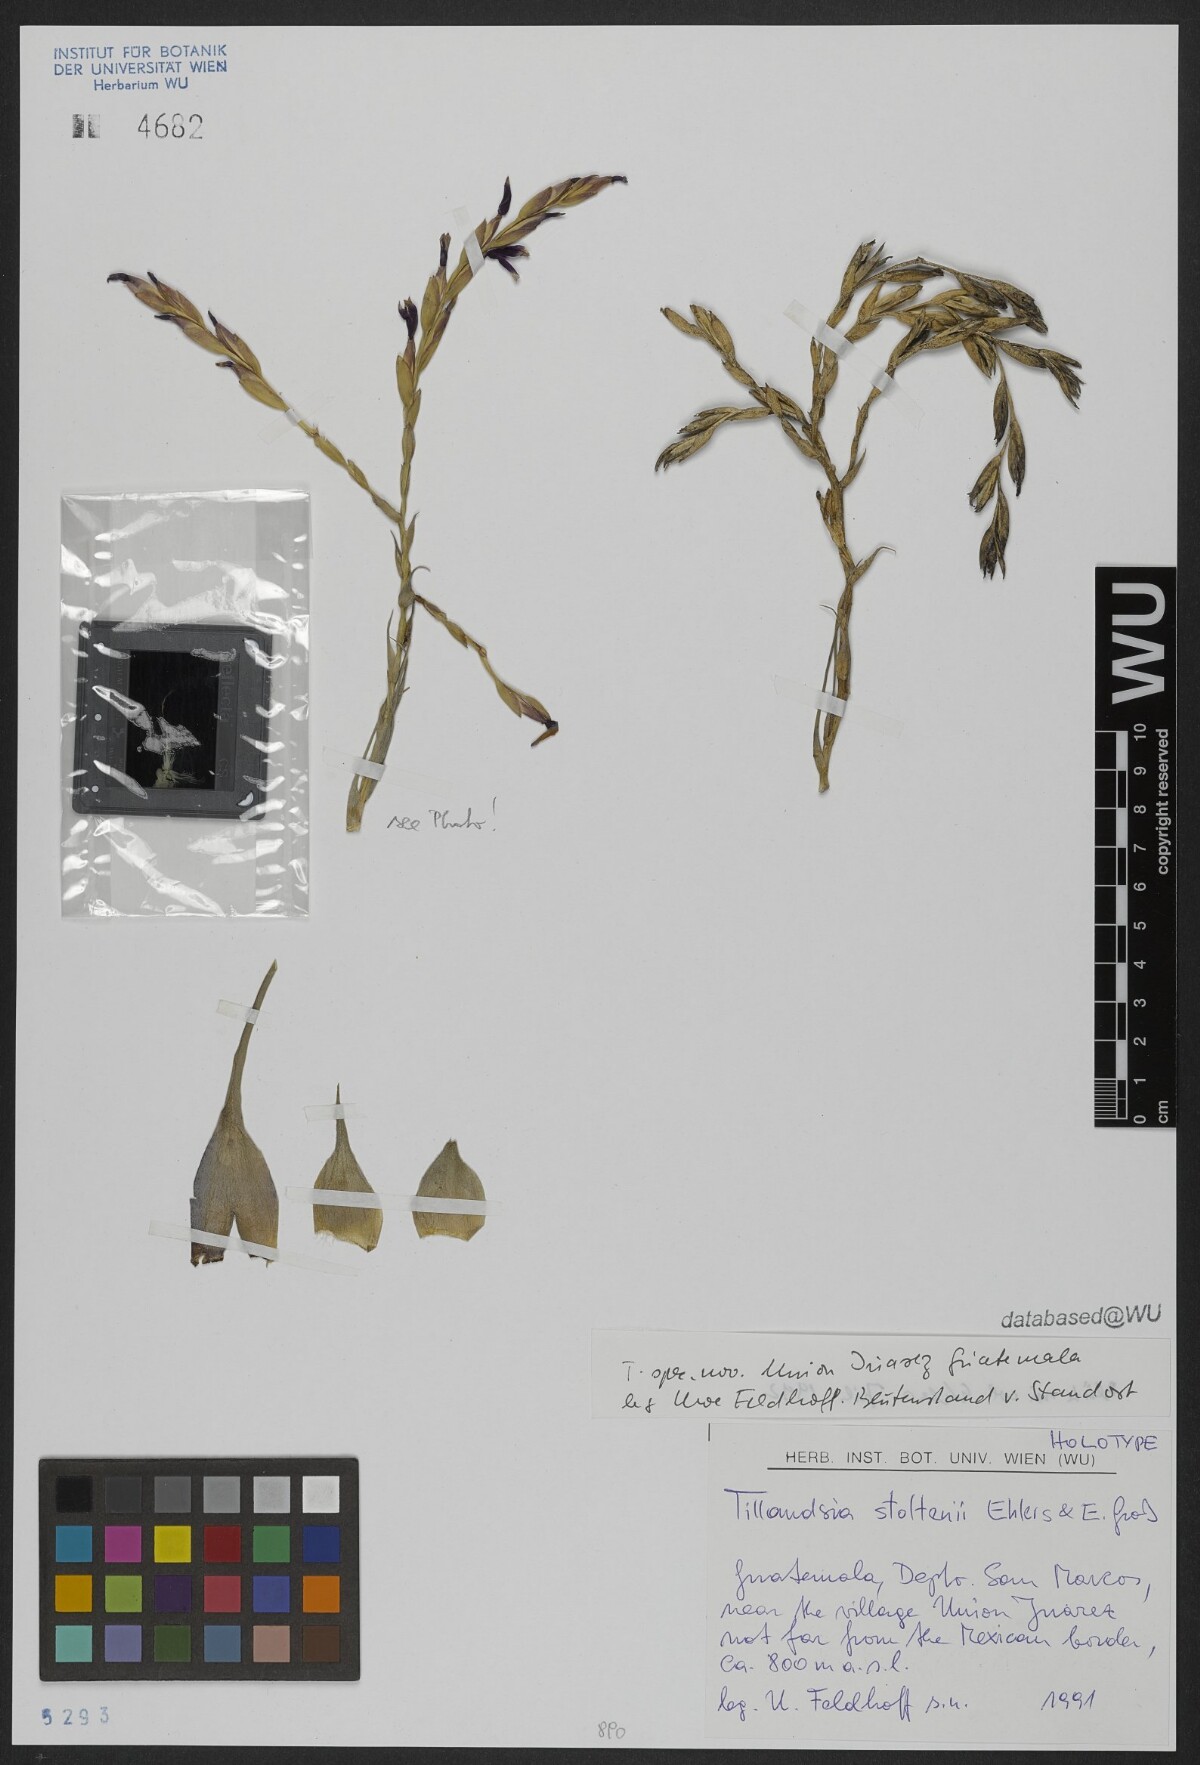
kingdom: Plantae
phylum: Tracheophyta
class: Liliopsida
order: Poales
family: Bromeliaceae
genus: Tillandsia
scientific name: Tillandsia stoltenii
